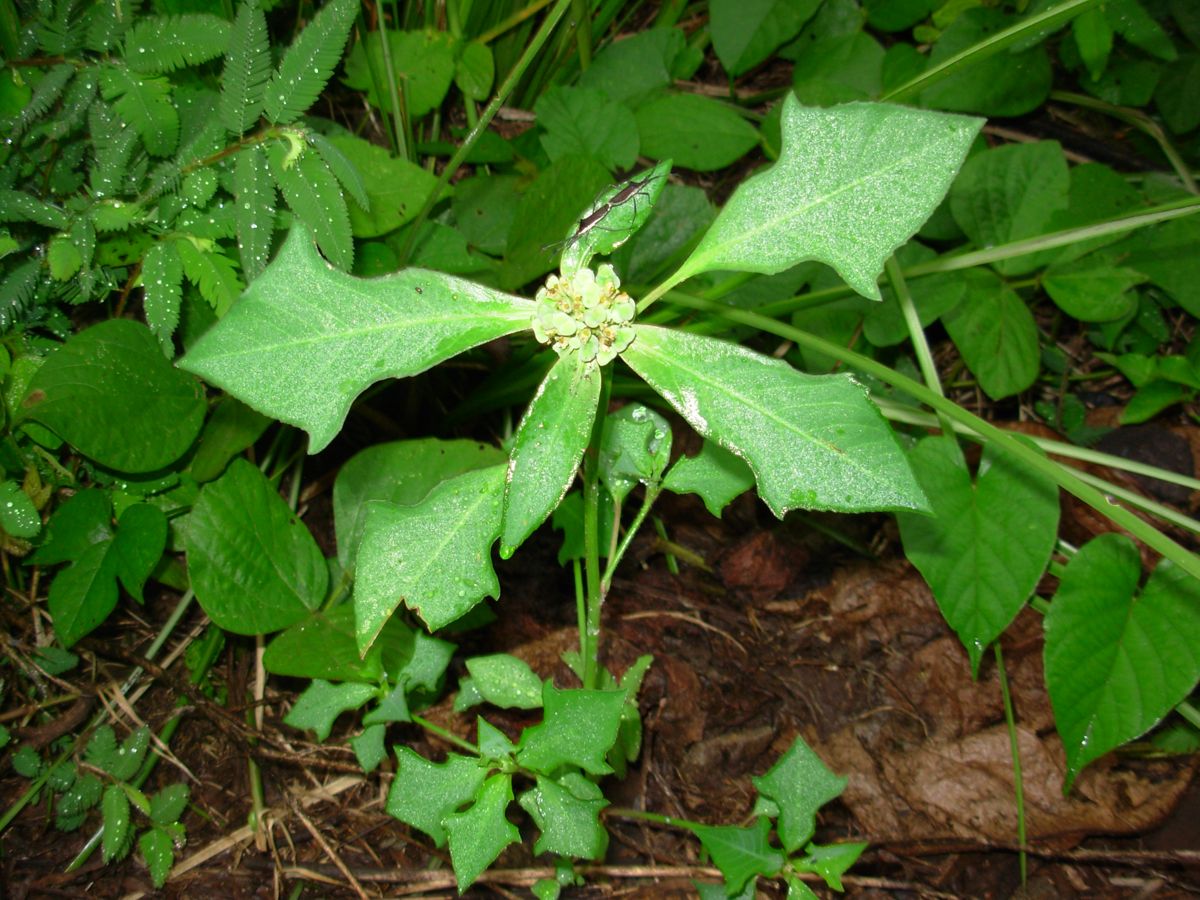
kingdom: Plantae
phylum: Tracheophyta
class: Magnoliopsida
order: Malpighiales
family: Euphorbiaceae
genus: Euphorbia
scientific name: Euphorbia heterophylla
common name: Mexican fireplant
